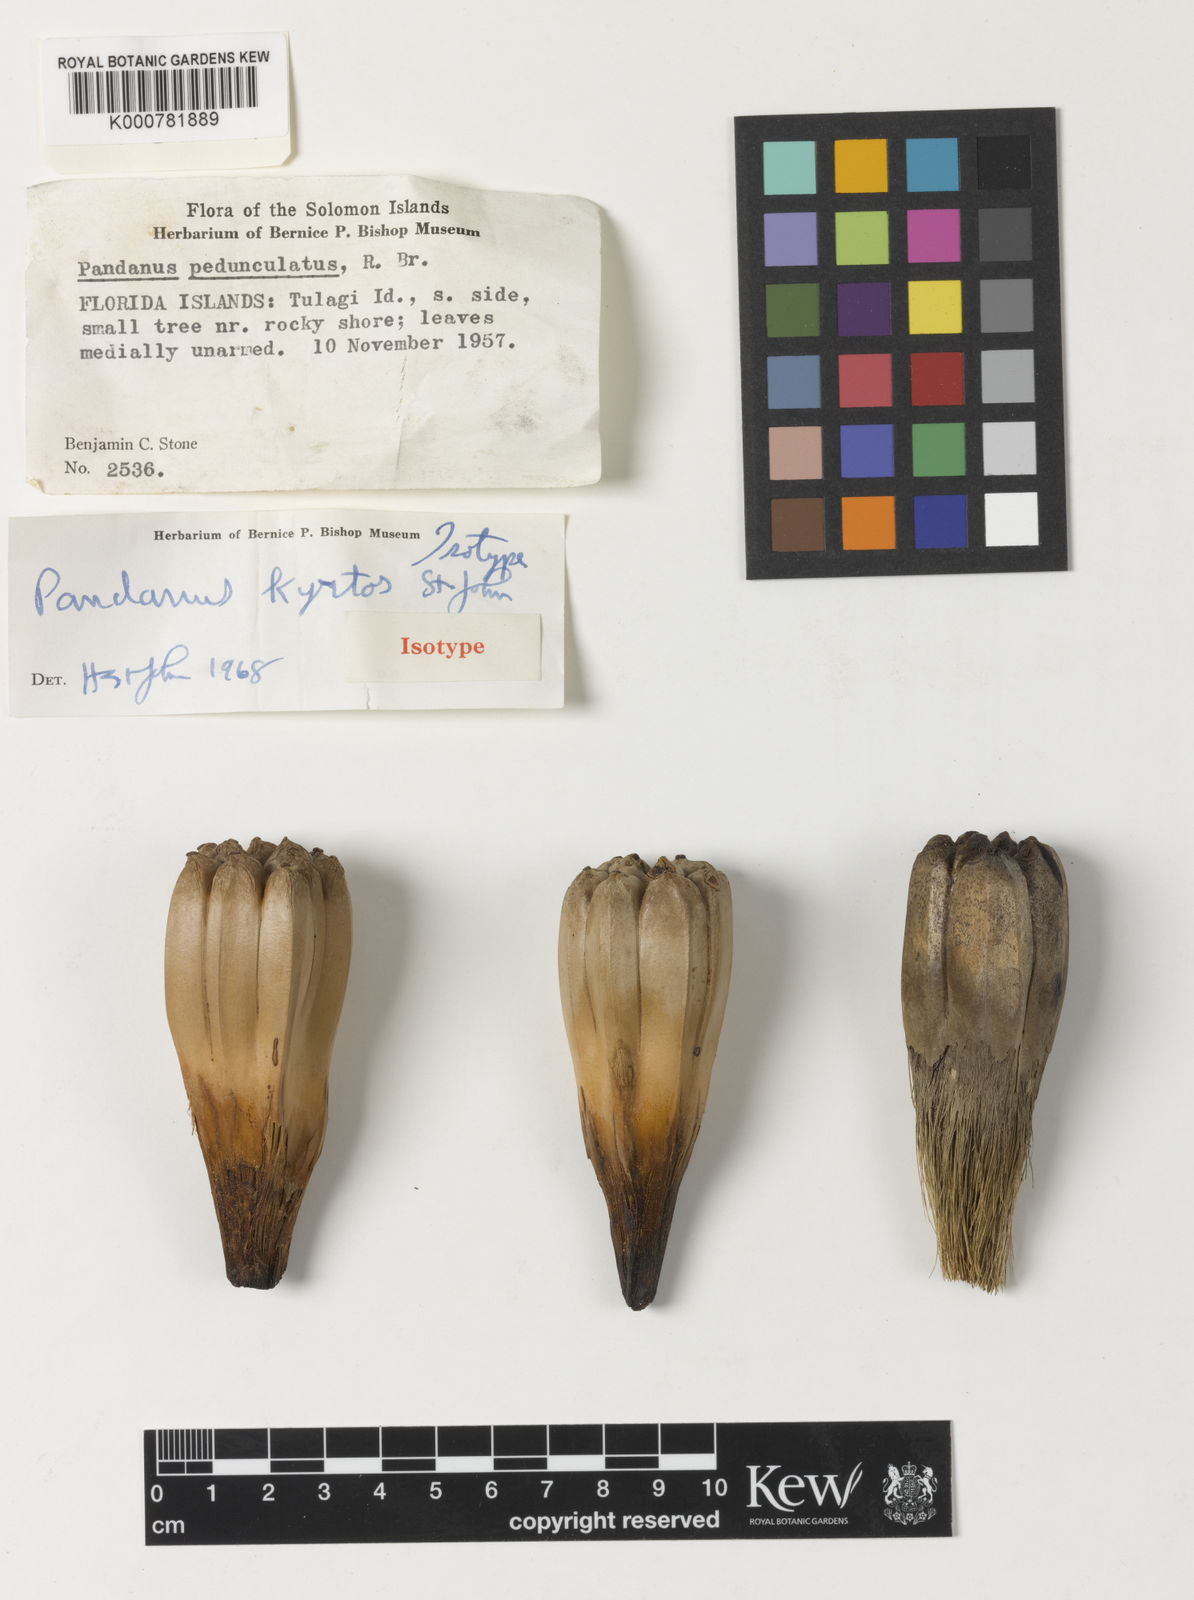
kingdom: Plantae
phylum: Tracheophyta
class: Liliopsida
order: Pandanales
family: Pandanaceae
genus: Pandanus
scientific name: Pandanus
